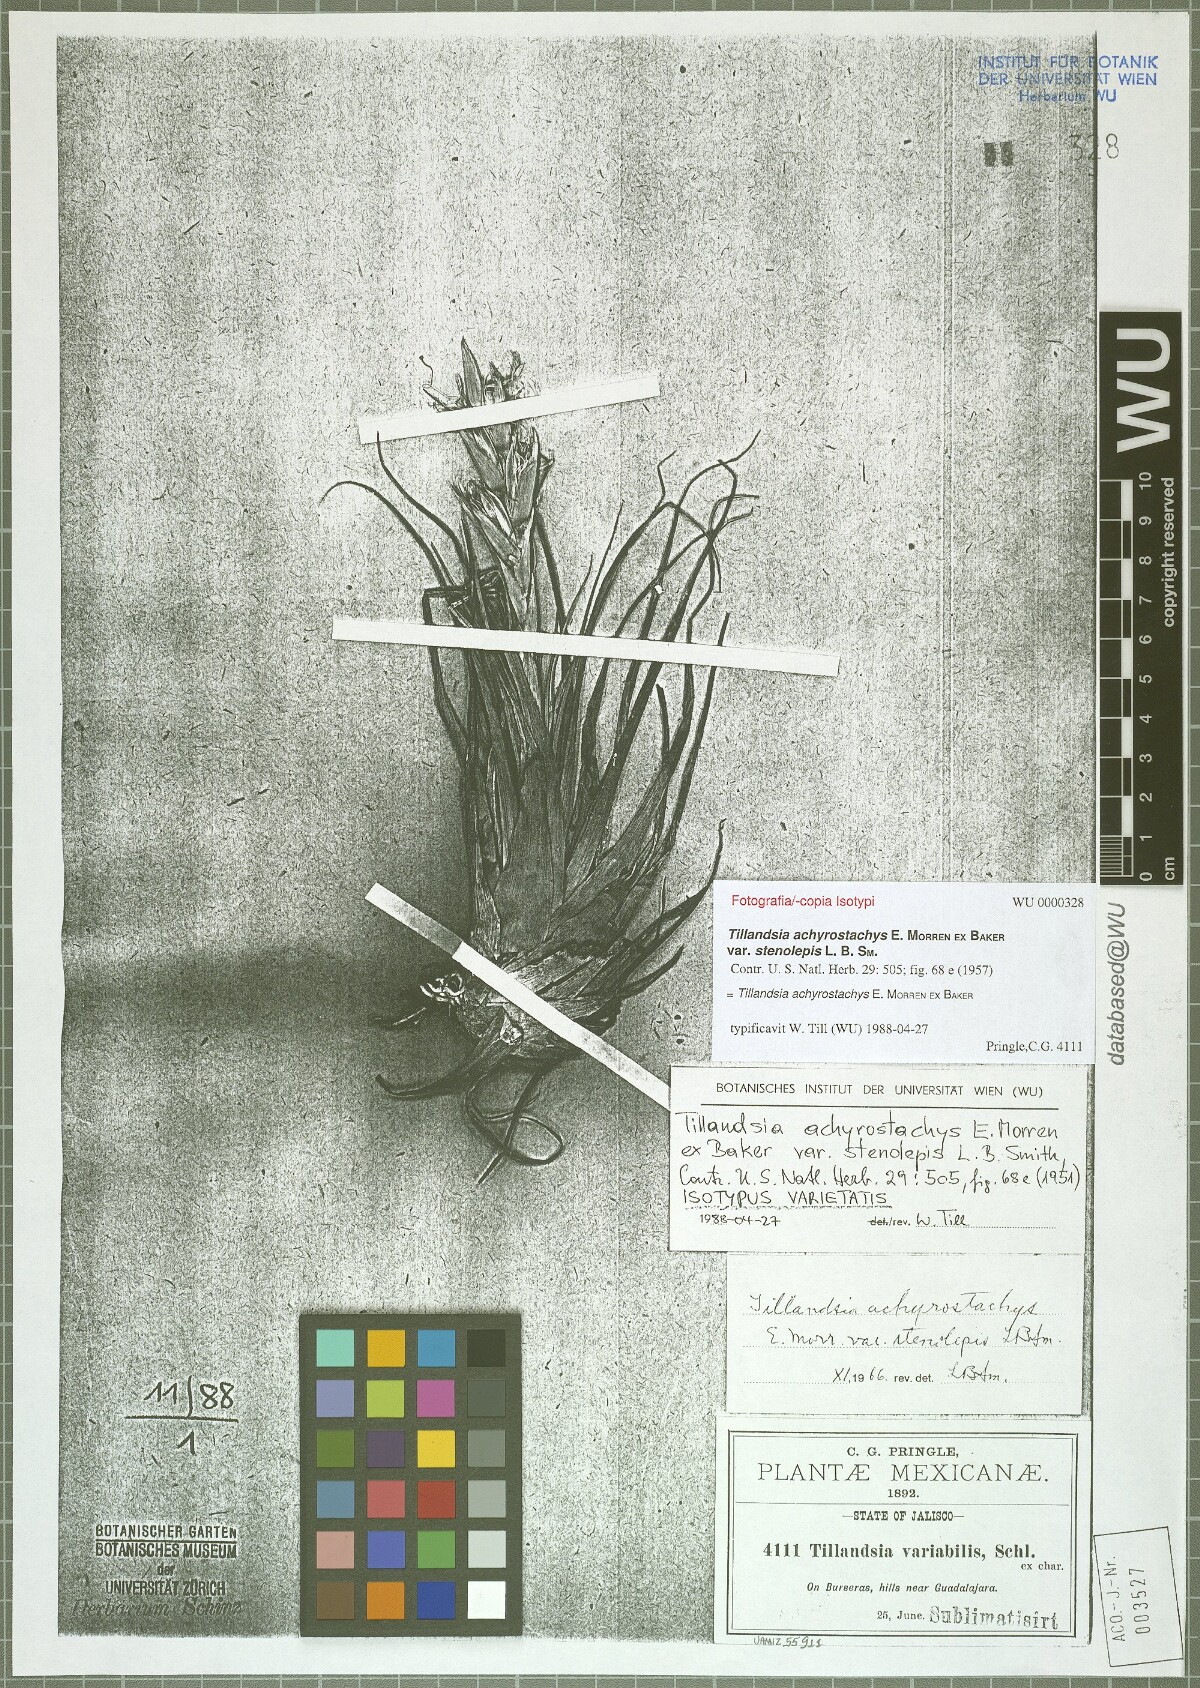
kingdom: Plantae
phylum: Tracheophyta
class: Liliopsida
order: Poales
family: Bromeliaceae
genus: Tillandsia
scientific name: Tillandsia achyrostachys
